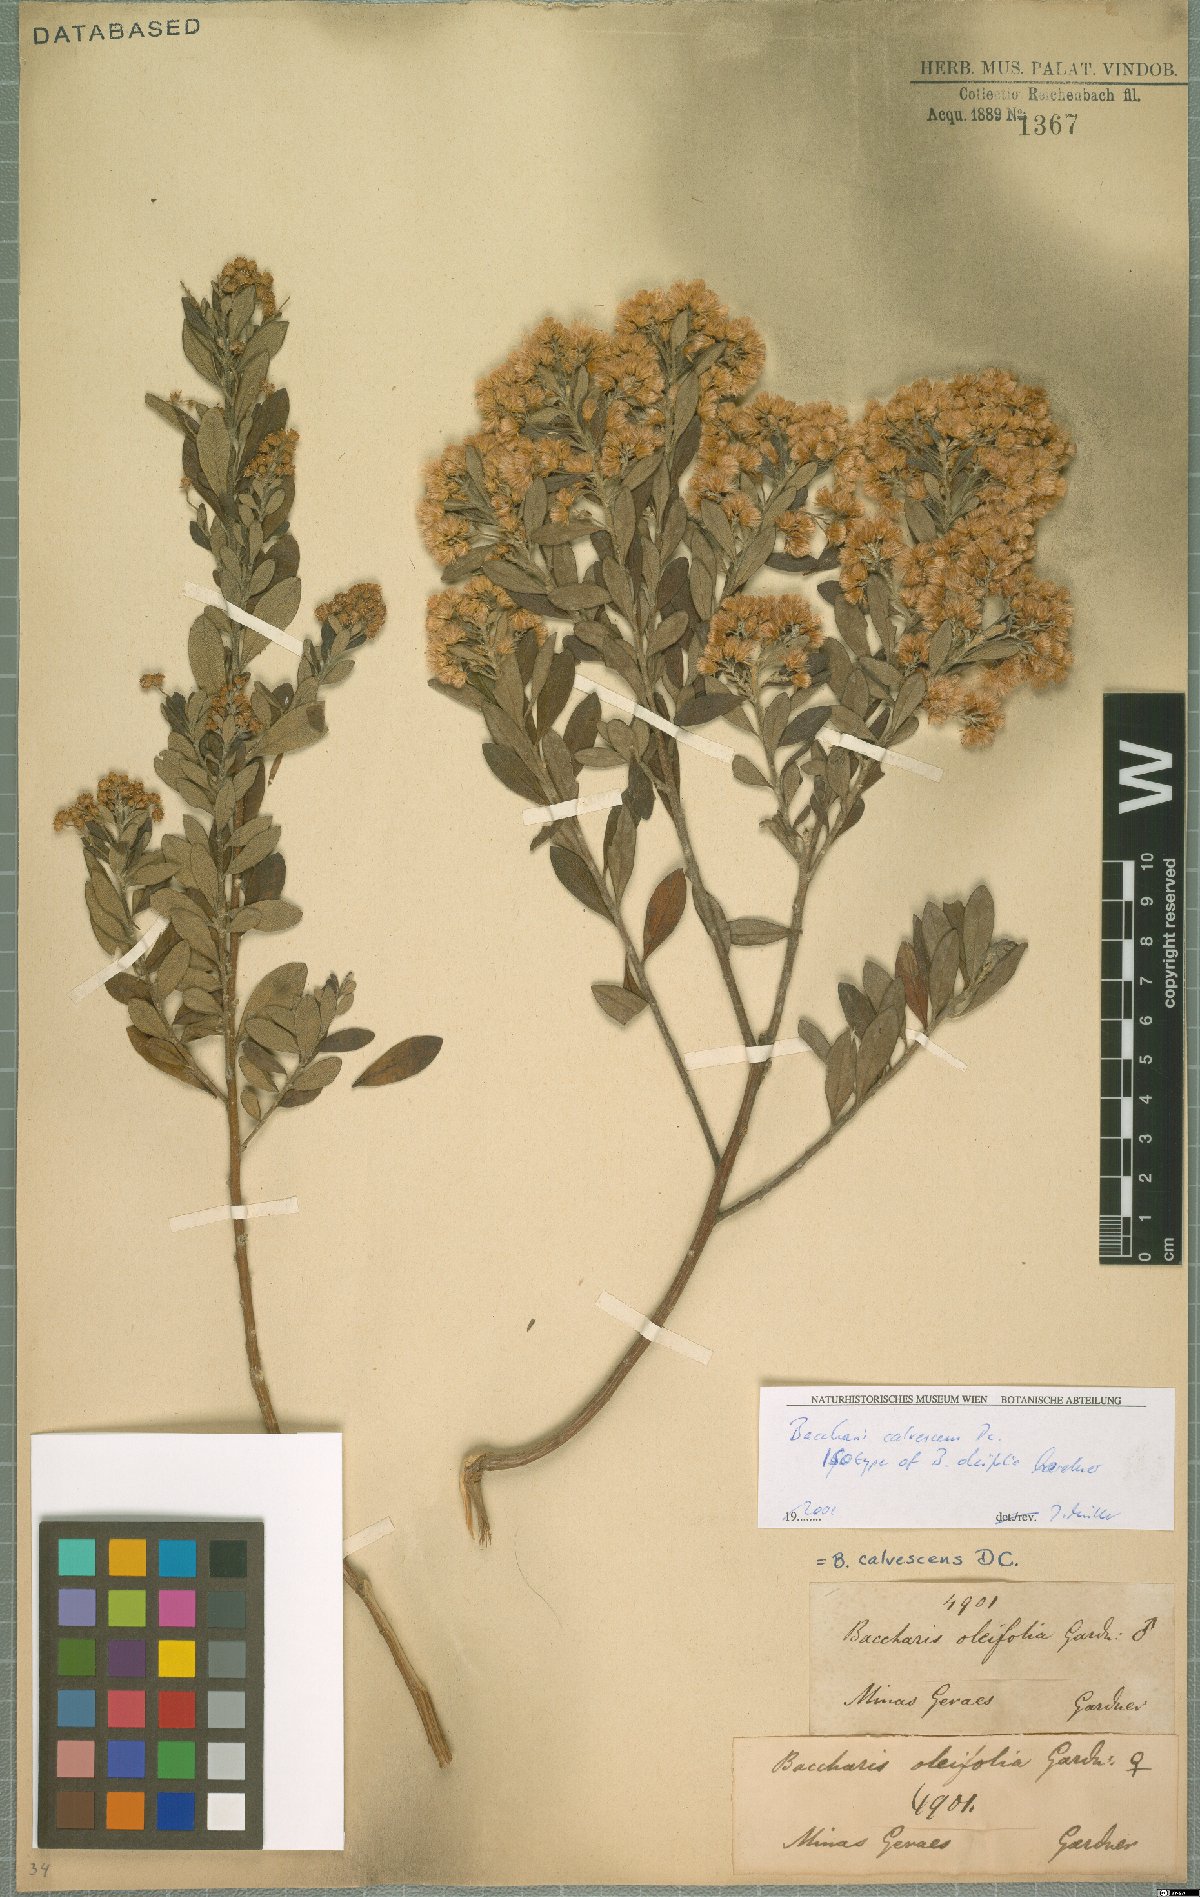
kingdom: Plantae
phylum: Tracheophyta
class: Magnoliopsida
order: Asterales
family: Asteraceae
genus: Baccharis
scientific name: Baccharis calvescens
